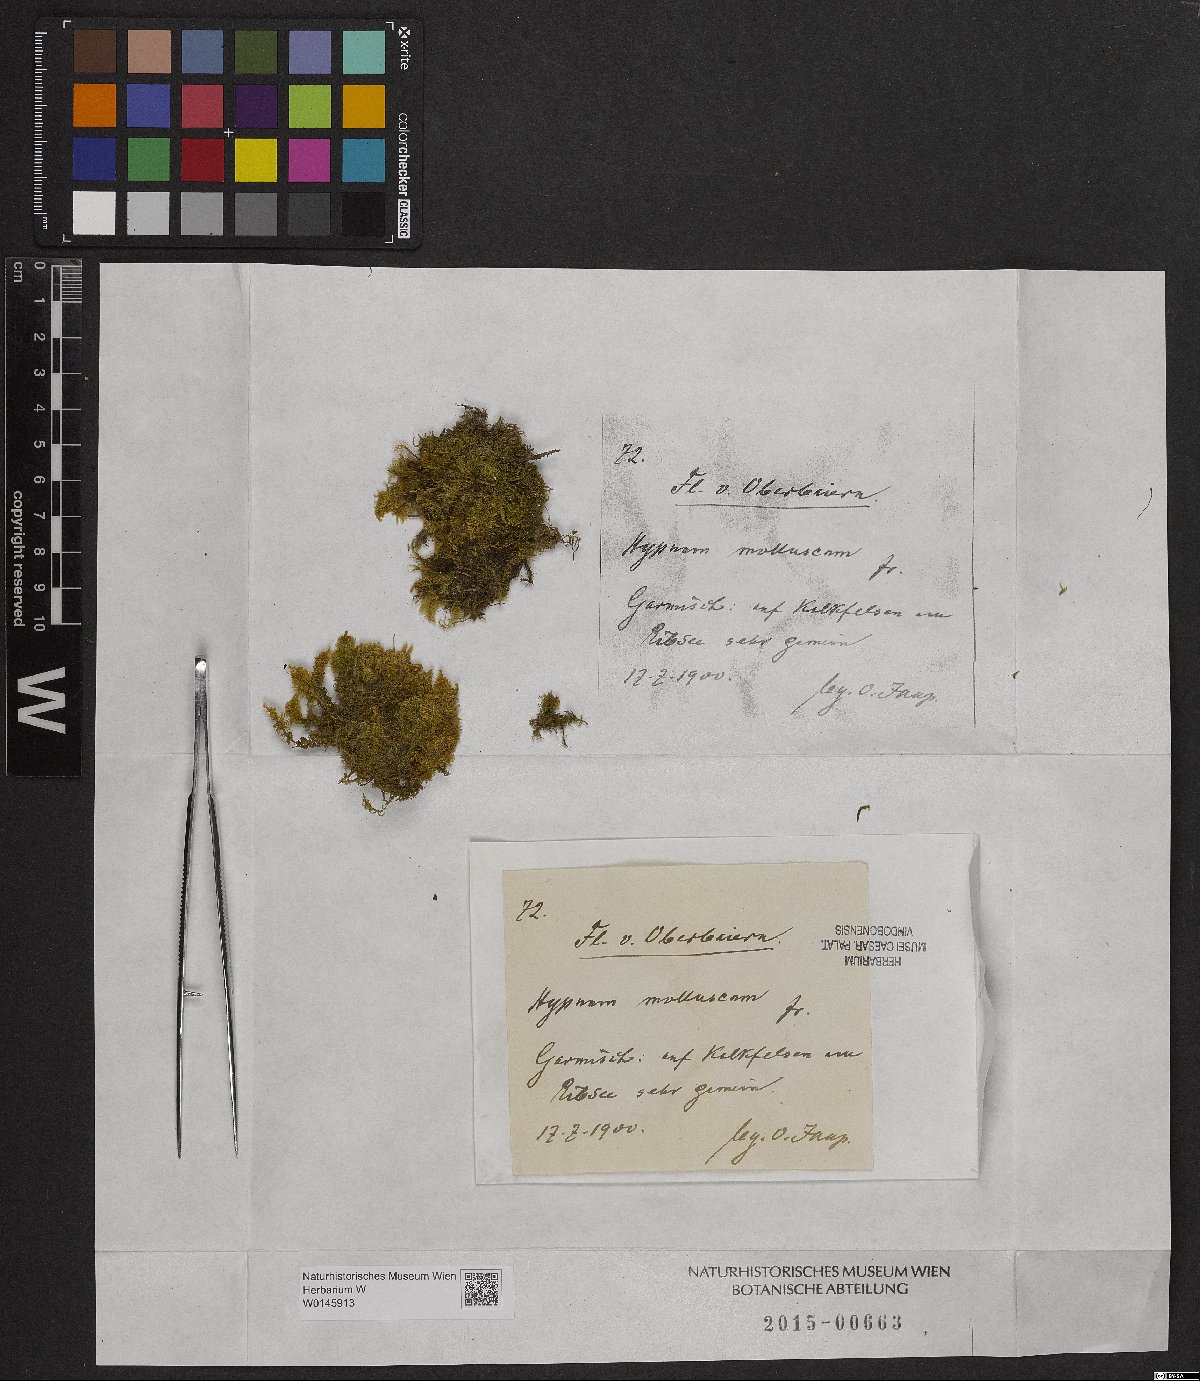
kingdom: Plantae
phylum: Bryophyta
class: Bryopsida
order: Hypnales
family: Myuriaceae
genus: Ctenidium
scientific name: Ctenidium molluscum
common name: Chalk comb-moss
